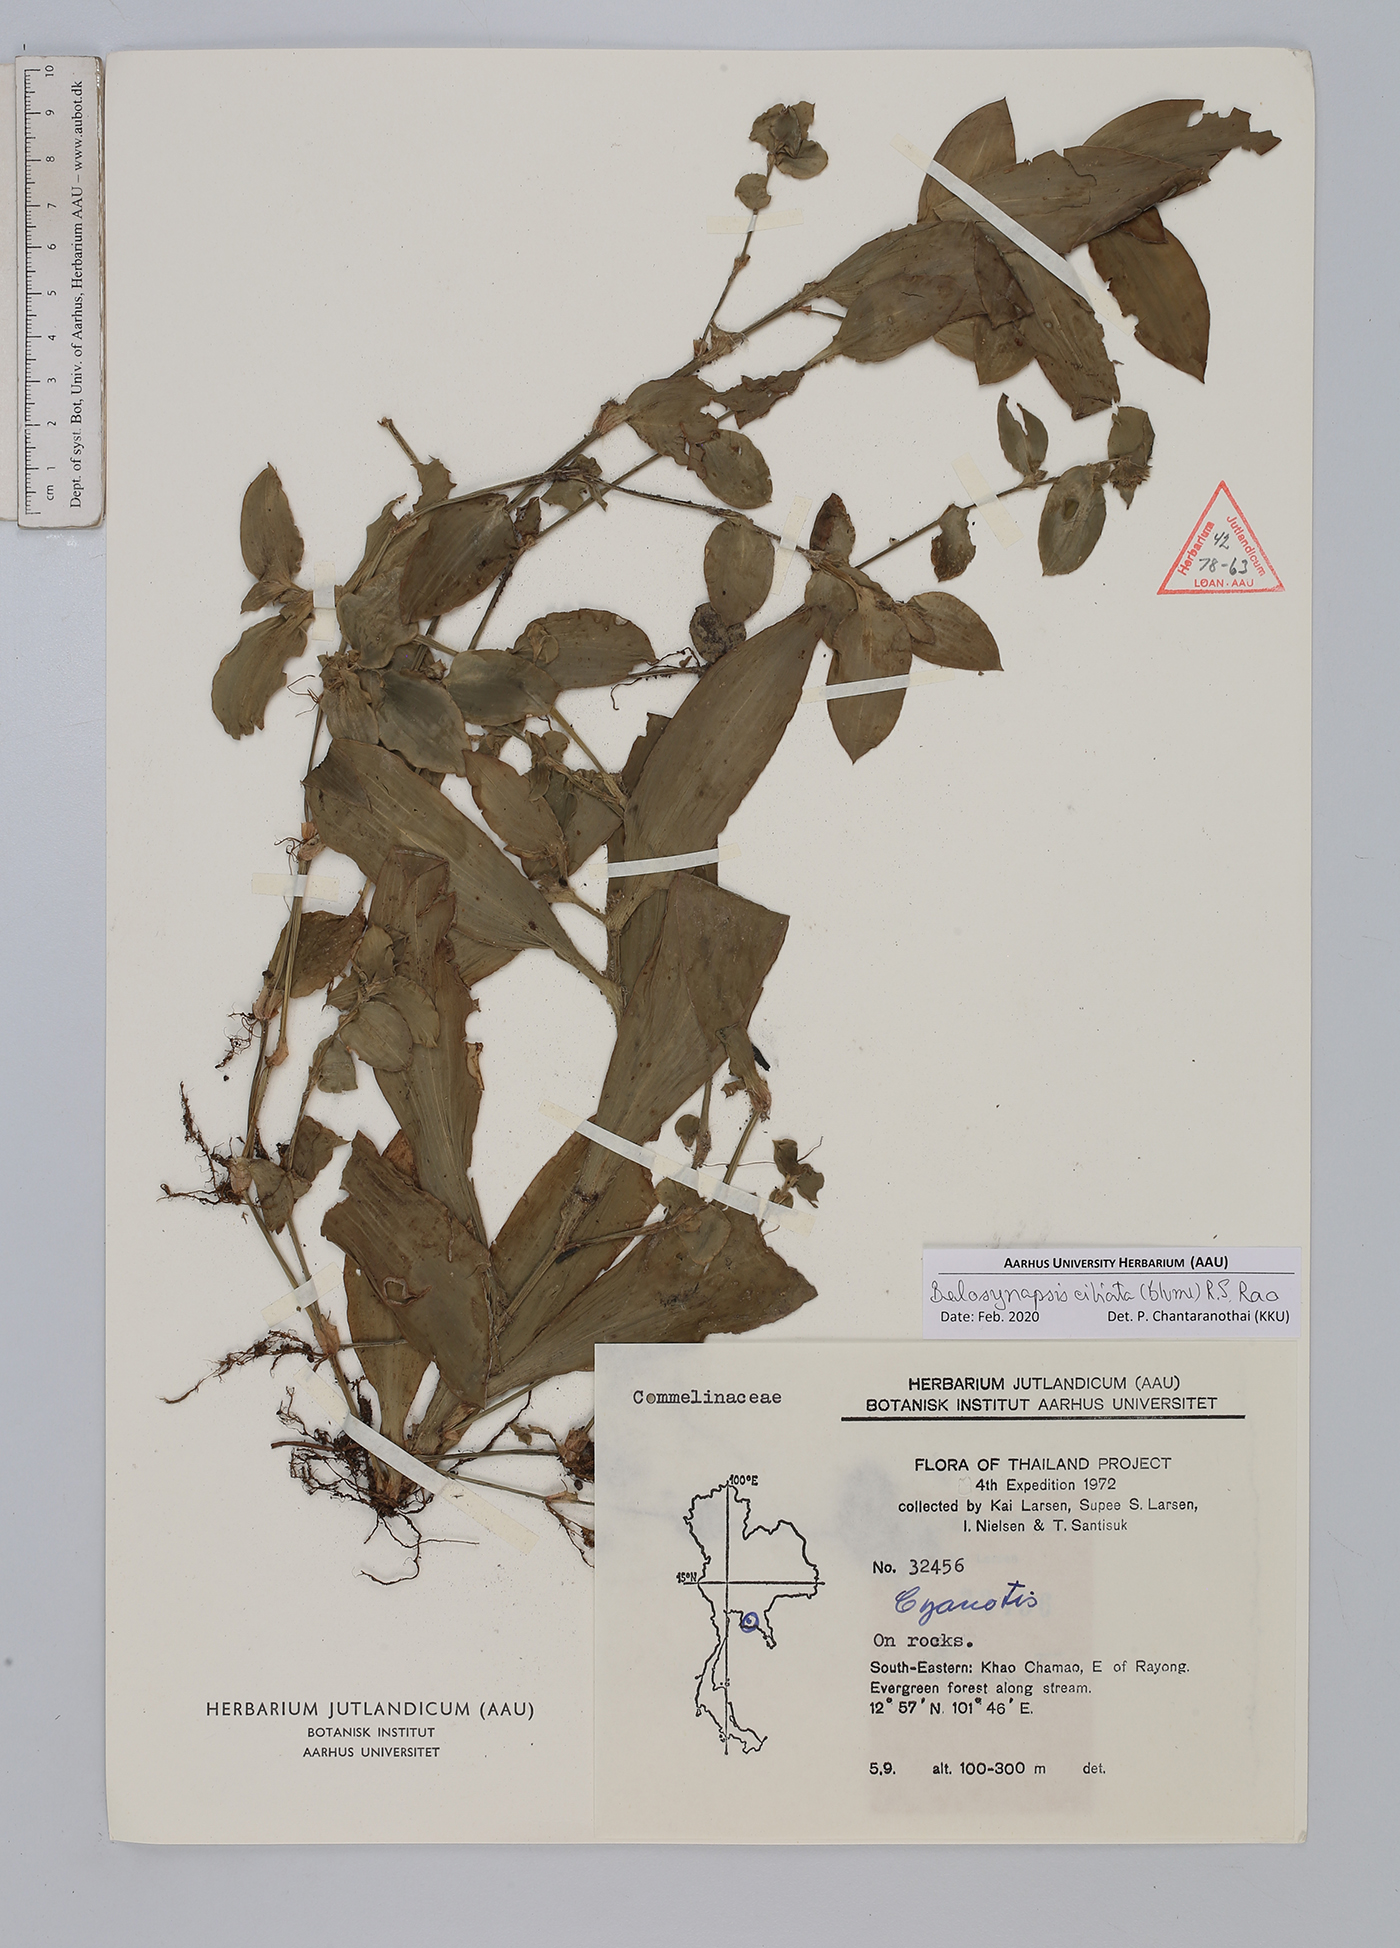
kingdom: Plantae
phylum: Tracheophyta
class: Liliopsida
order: Commelinales
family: Commelinaceae
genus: Cyanotis
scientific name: Cyanotis ciliata
